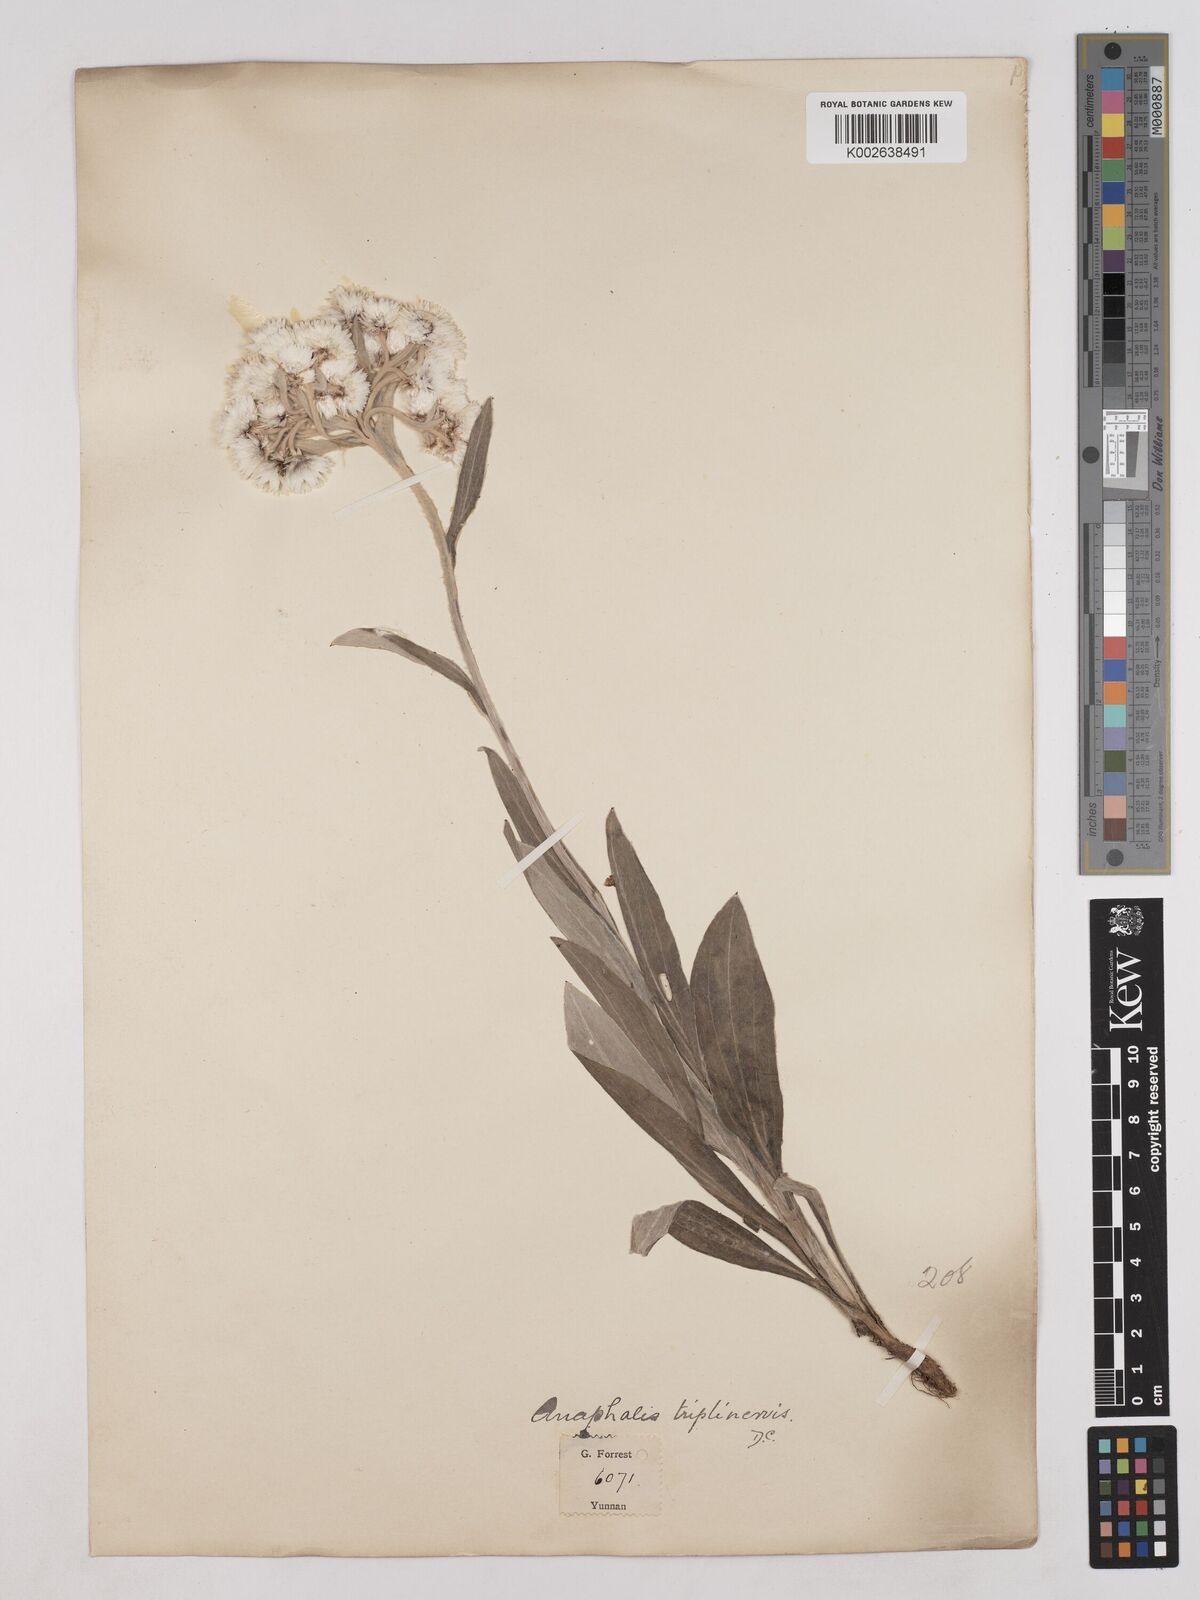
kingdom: Plantae
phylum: Tracheophyta
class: Magnoliopsida
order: Asterales
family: Asteraceae
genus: Anaphalis
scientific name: Anaphalis nepalensis
